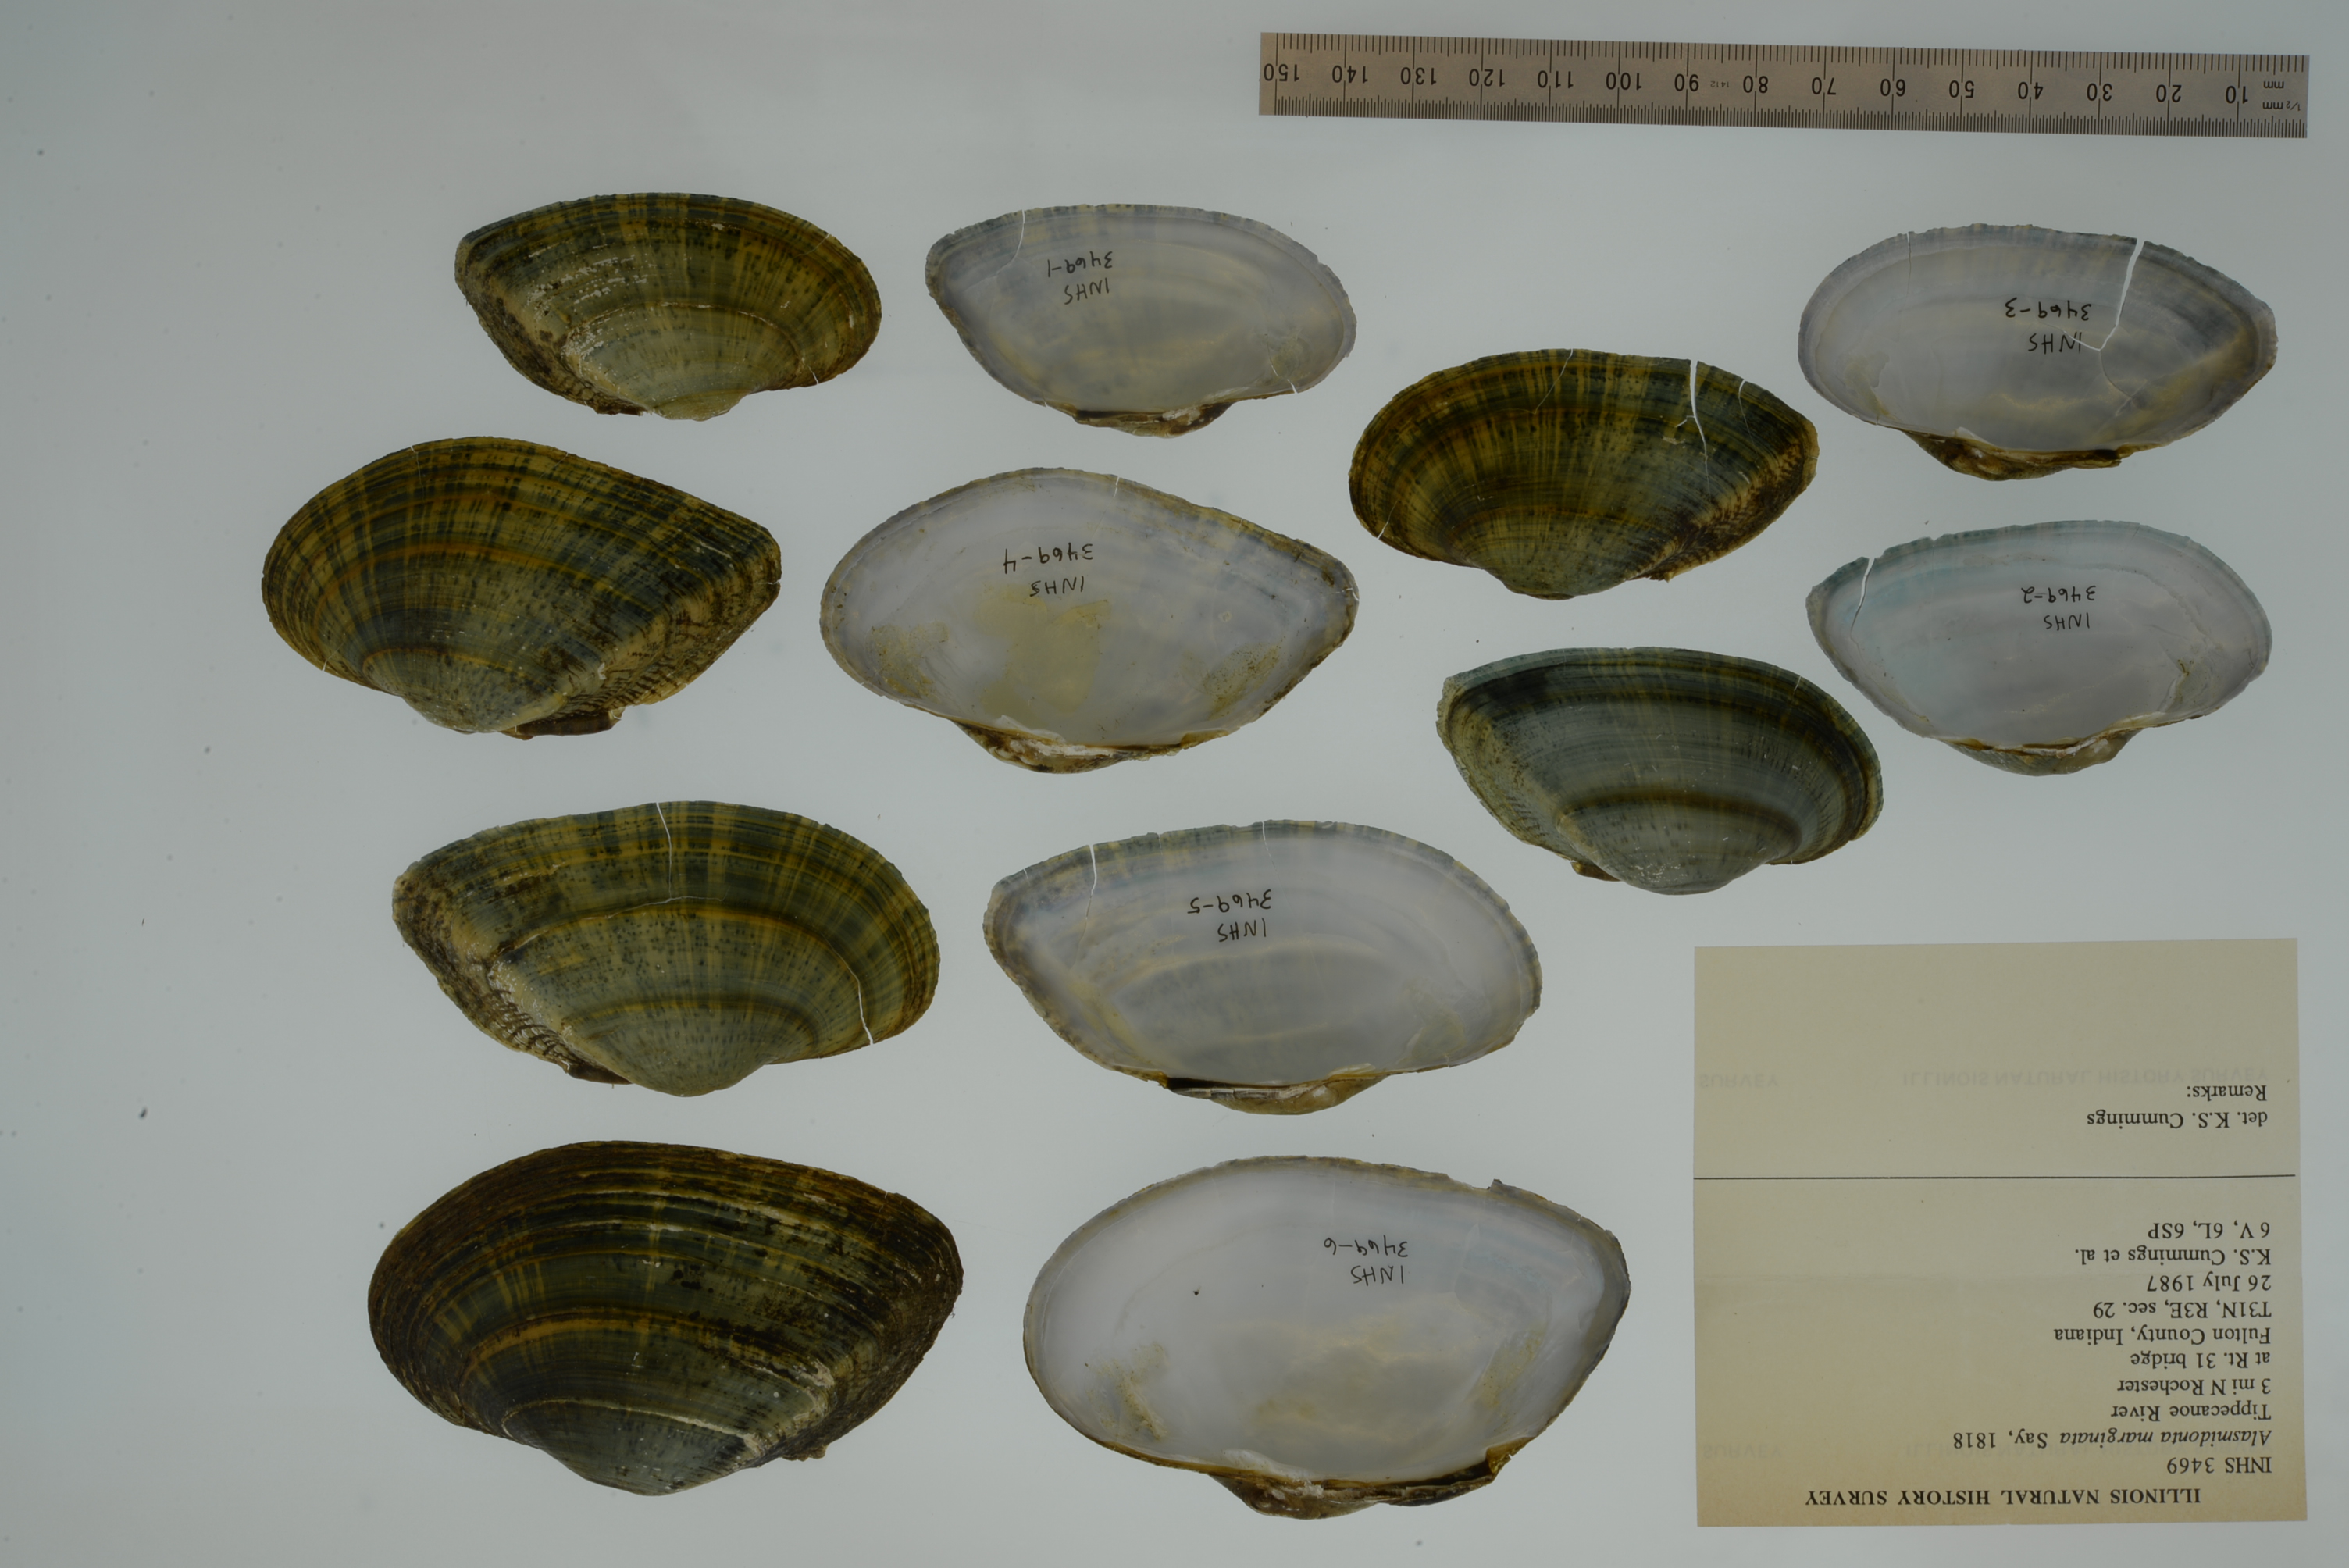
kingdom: Animalia
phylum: Mollusca
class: Bivalvia
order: Unionida
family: Unionidae
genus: Alasmidonta
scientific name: Alasmidonta marginata
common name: Elktoe
